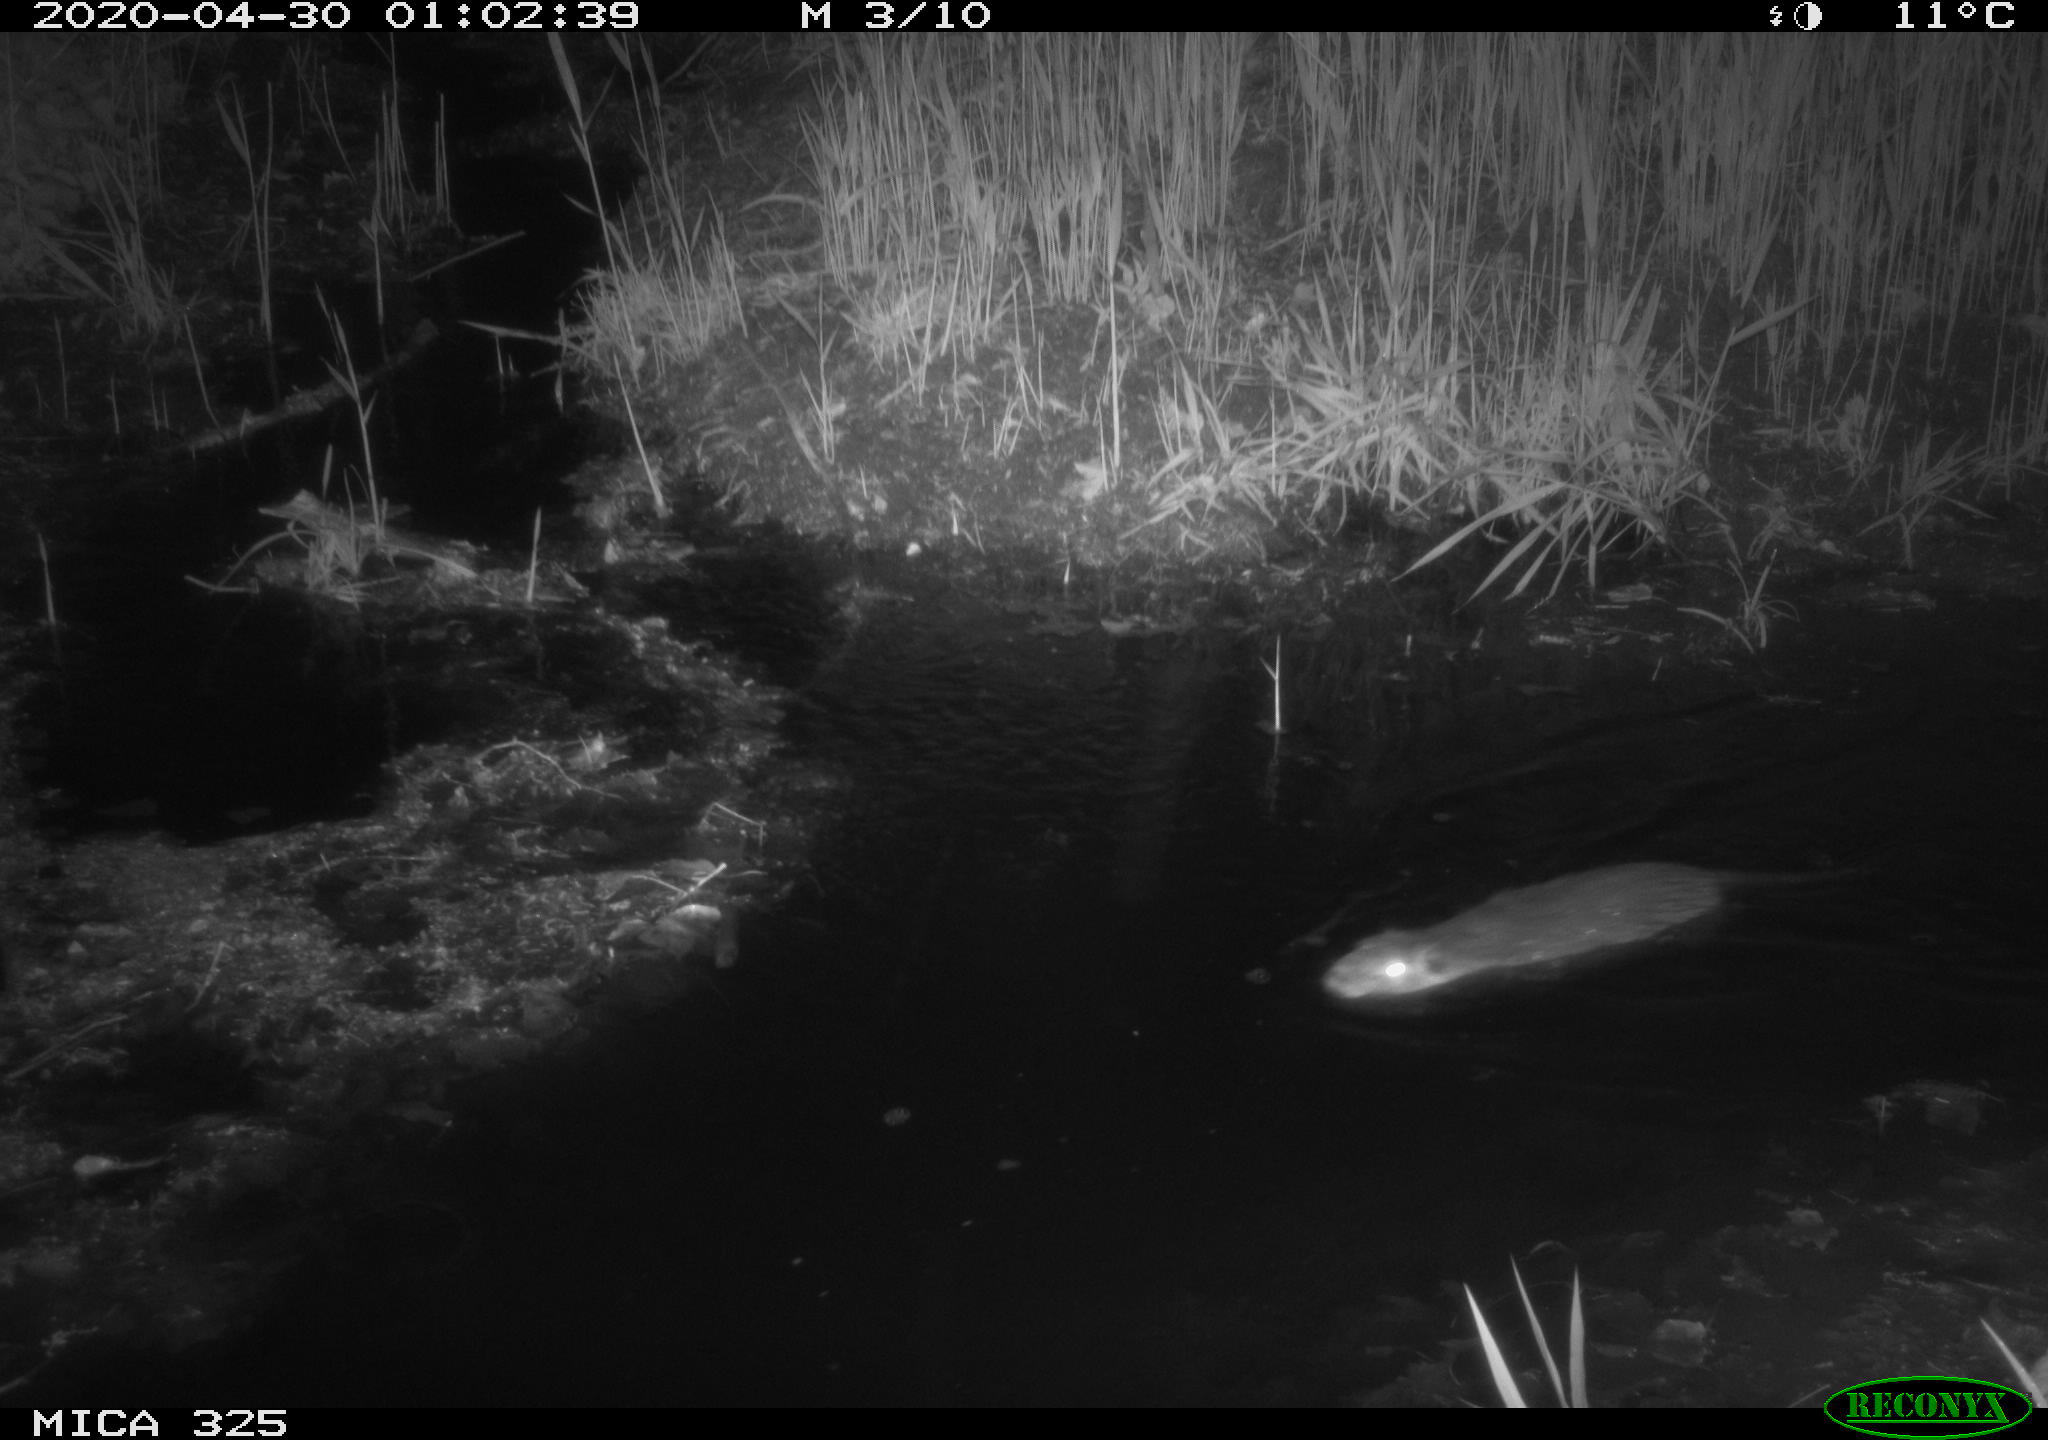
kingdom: Animalia
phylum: Chordata
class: Mammalia
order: Rodentia
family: Myocastoridae
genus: Myocastor
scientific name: Myocastor coypus
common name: Coypu
